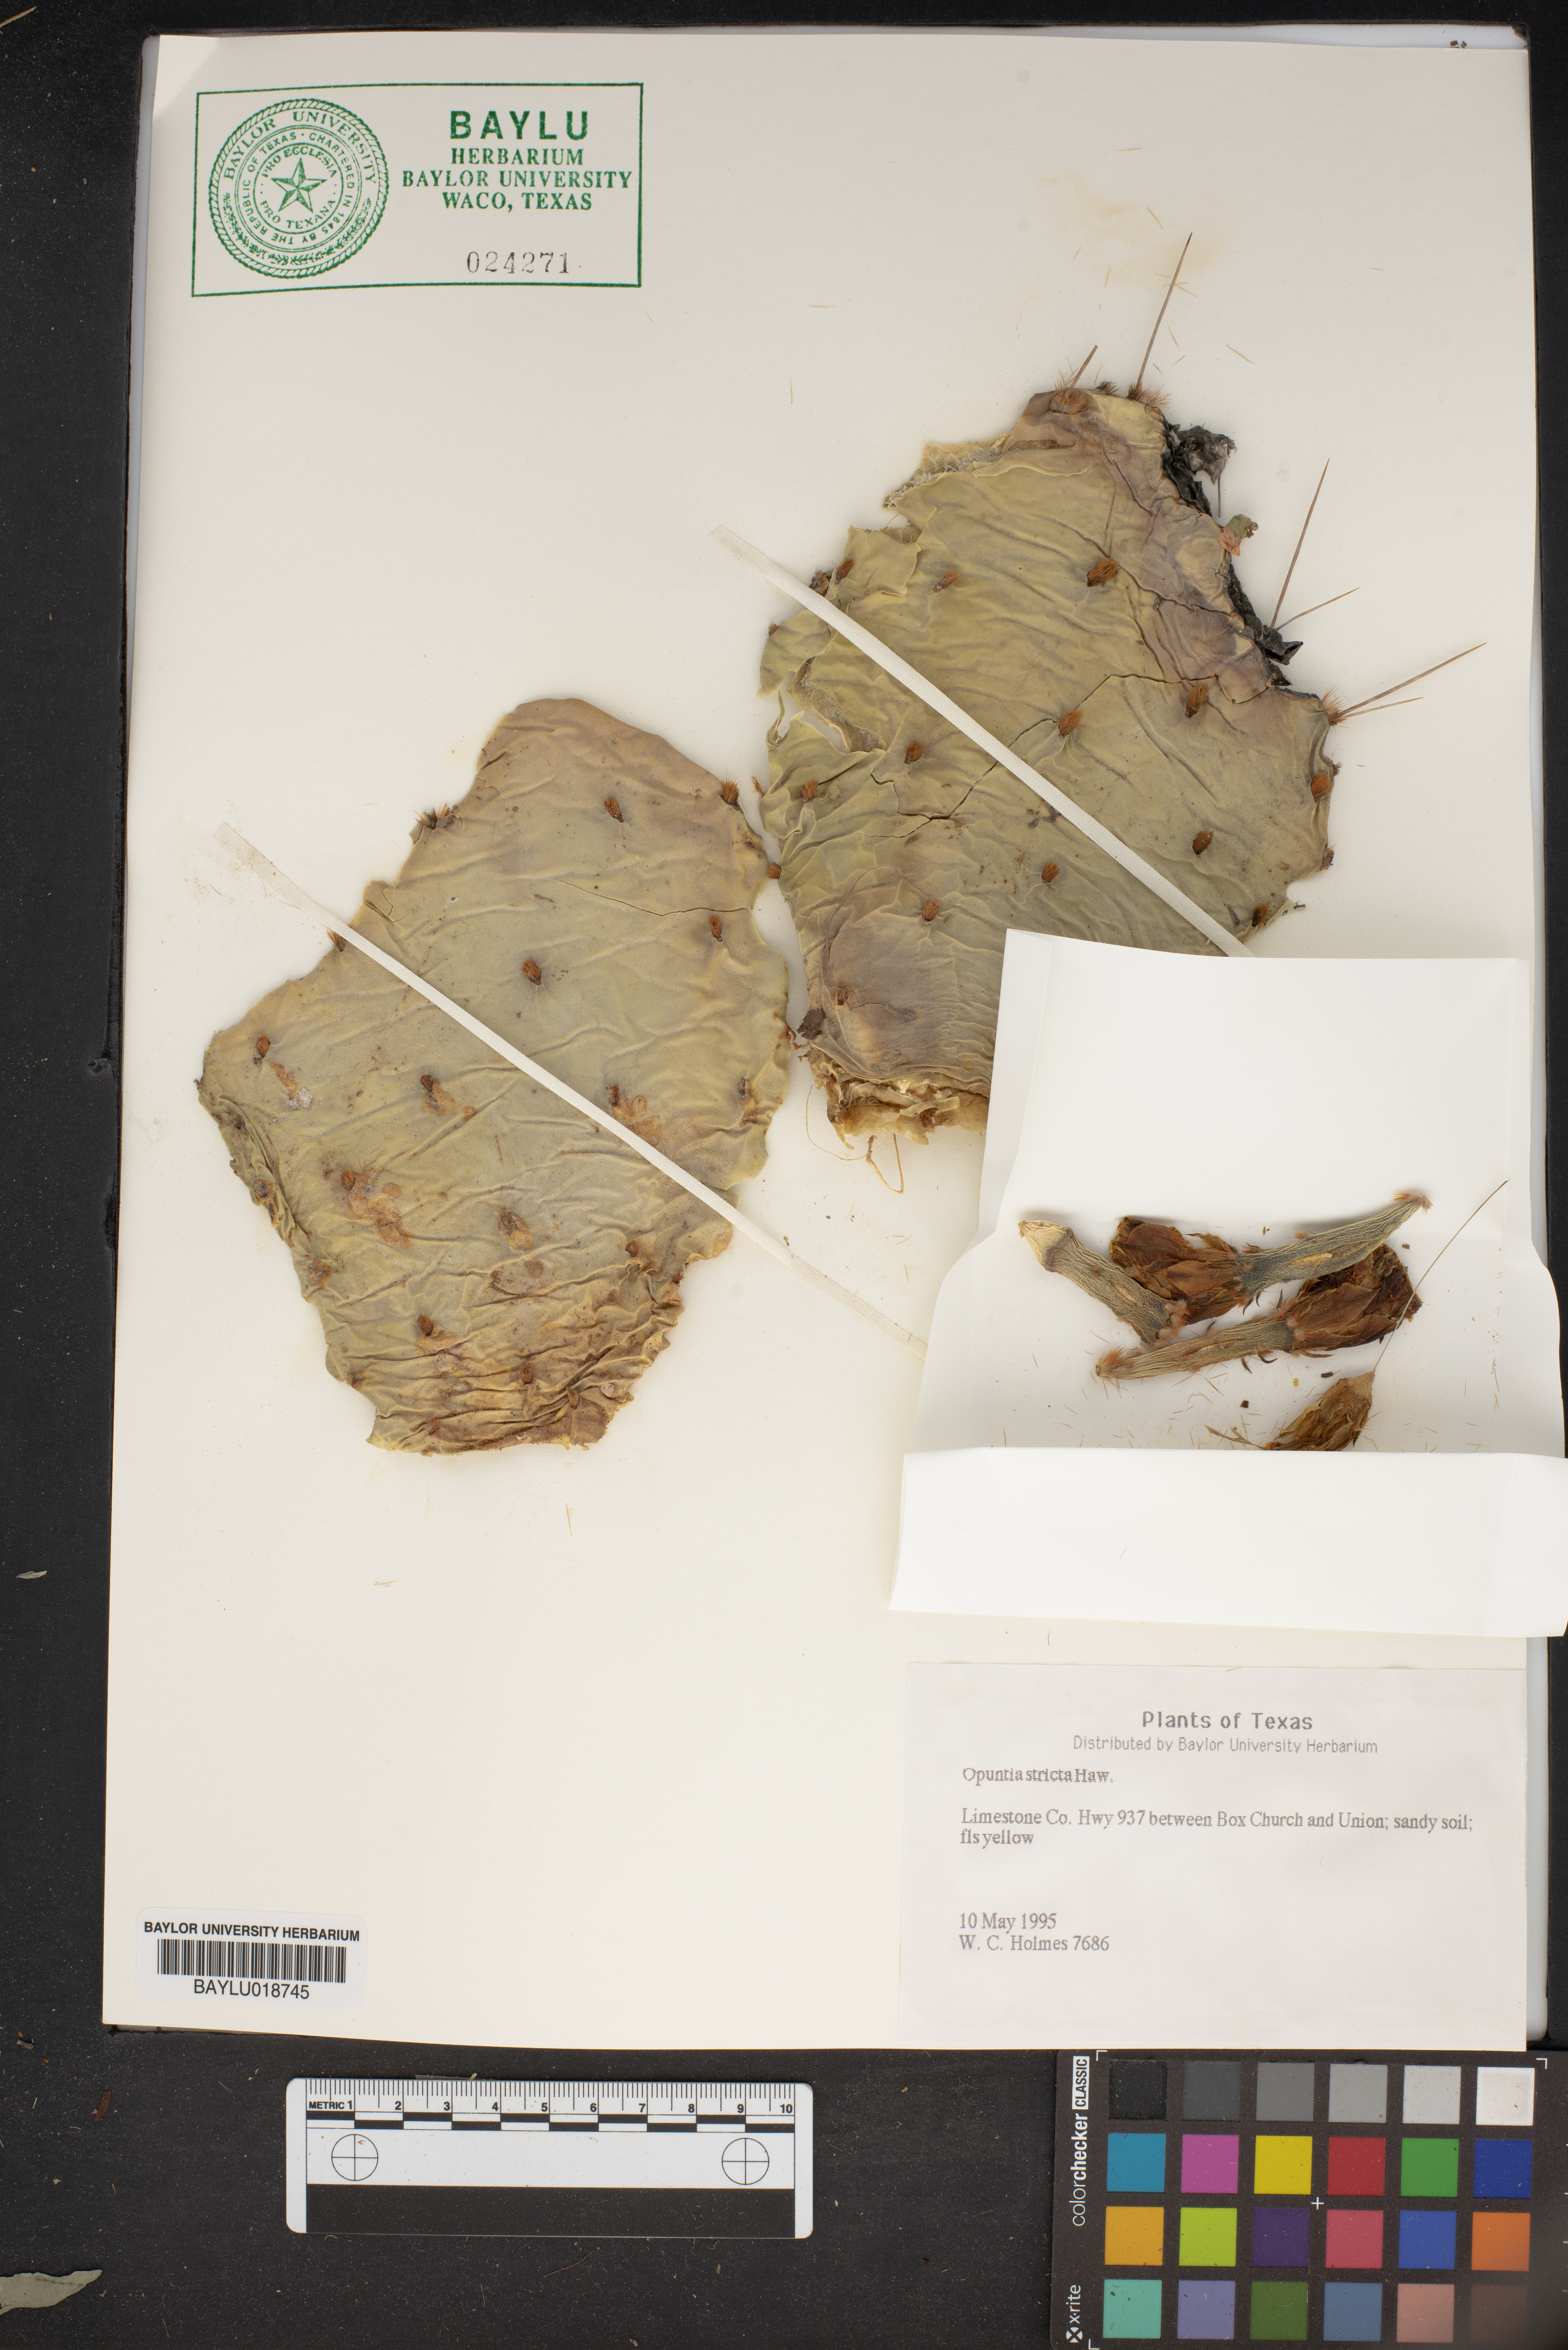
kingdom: Plantae
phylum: Tracheophyta
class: Magnoliopsida
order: Caryophyllales
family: Cactaceae
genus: Opuntia
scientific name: Opuntia stricta
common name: Erect pricklypear
